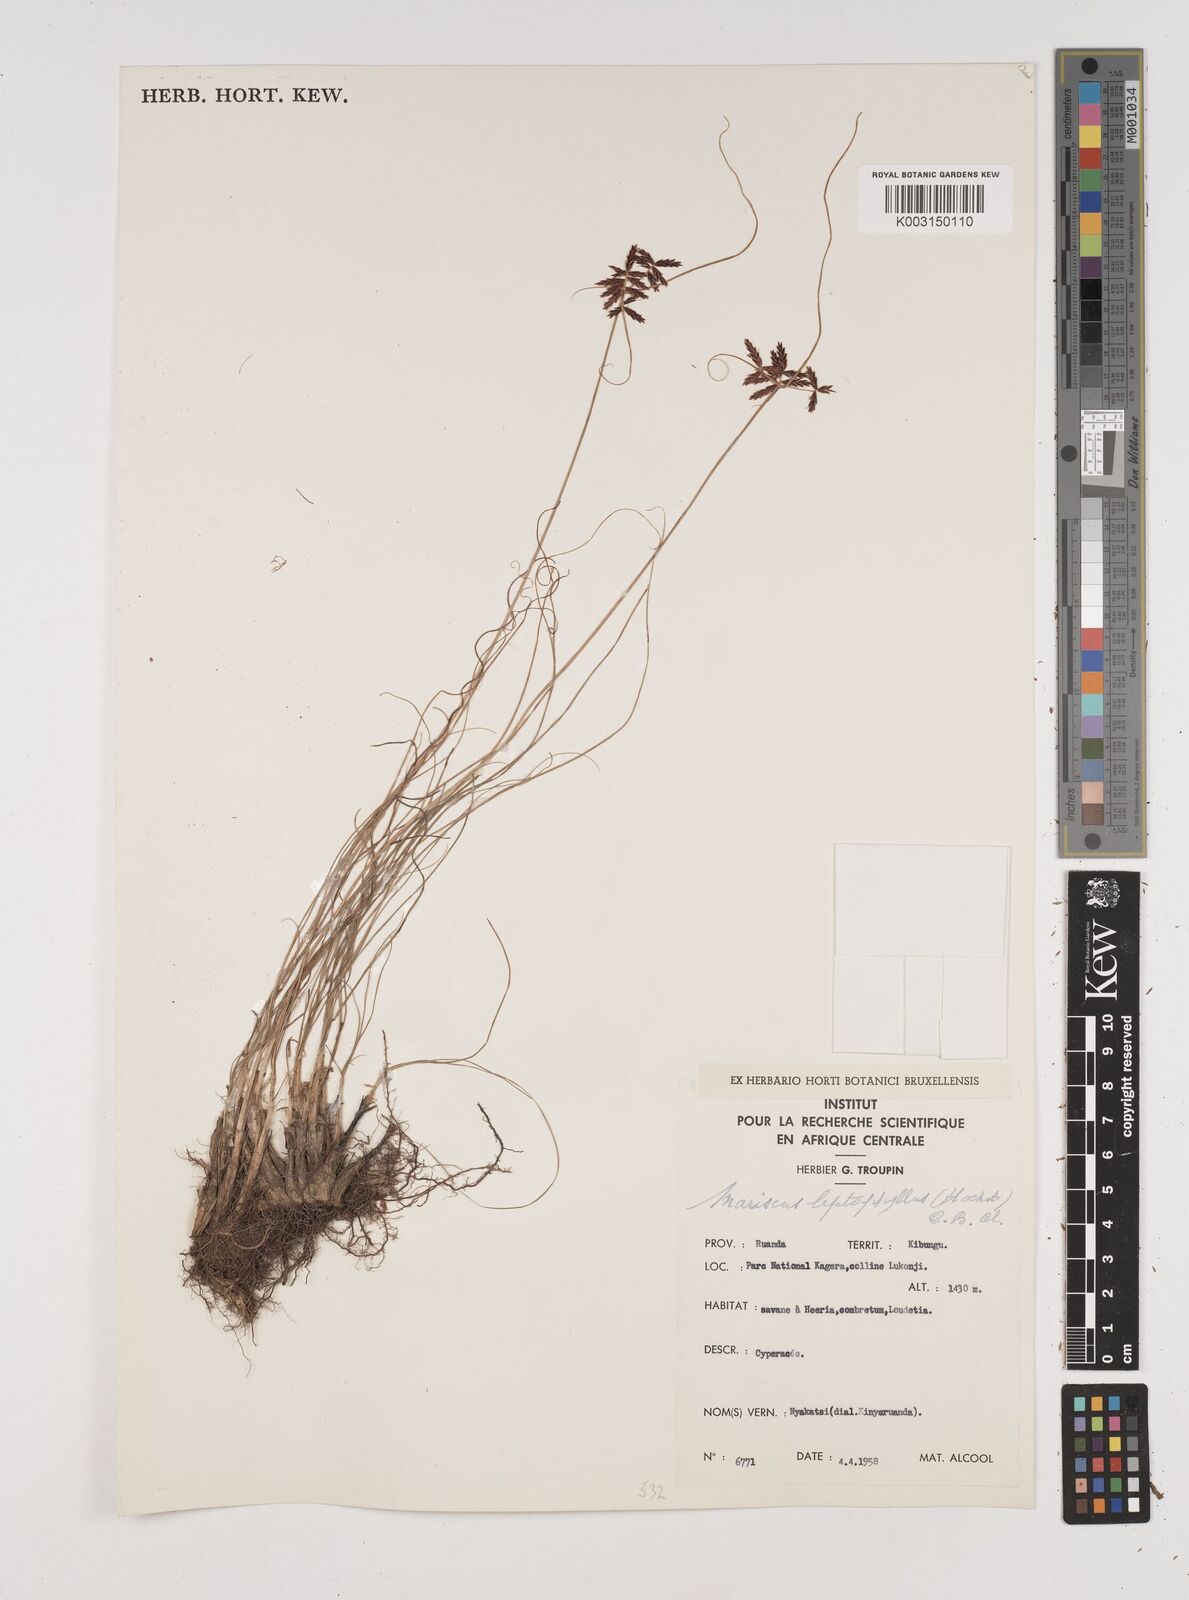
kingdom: Plantae
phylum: Tracheophyta
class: Liliopsida
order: Poales
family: Cyperaceae
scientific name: Cyperaceae
